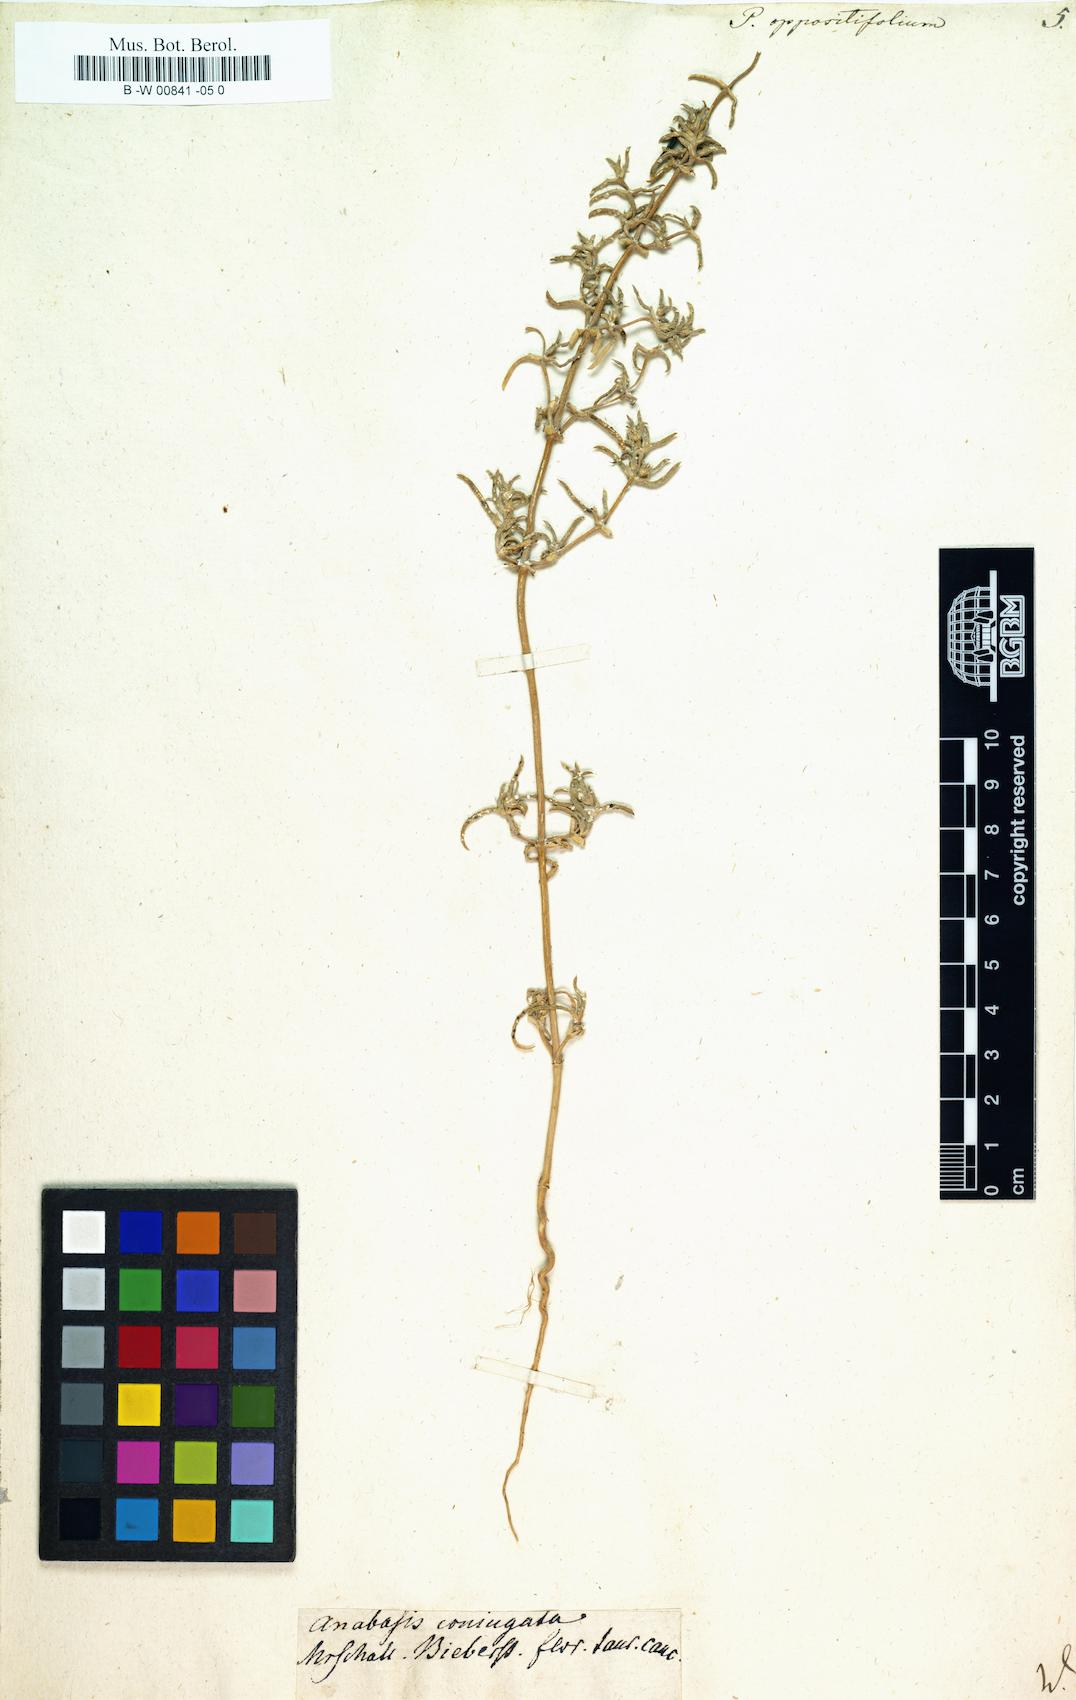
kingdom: Plantae
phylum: Tracheophyta
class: Magnoliopsida
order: Caryophyllales
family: Amaranthaceae
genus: Petrosimonia
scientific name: Petrosimonia oppositifolia
